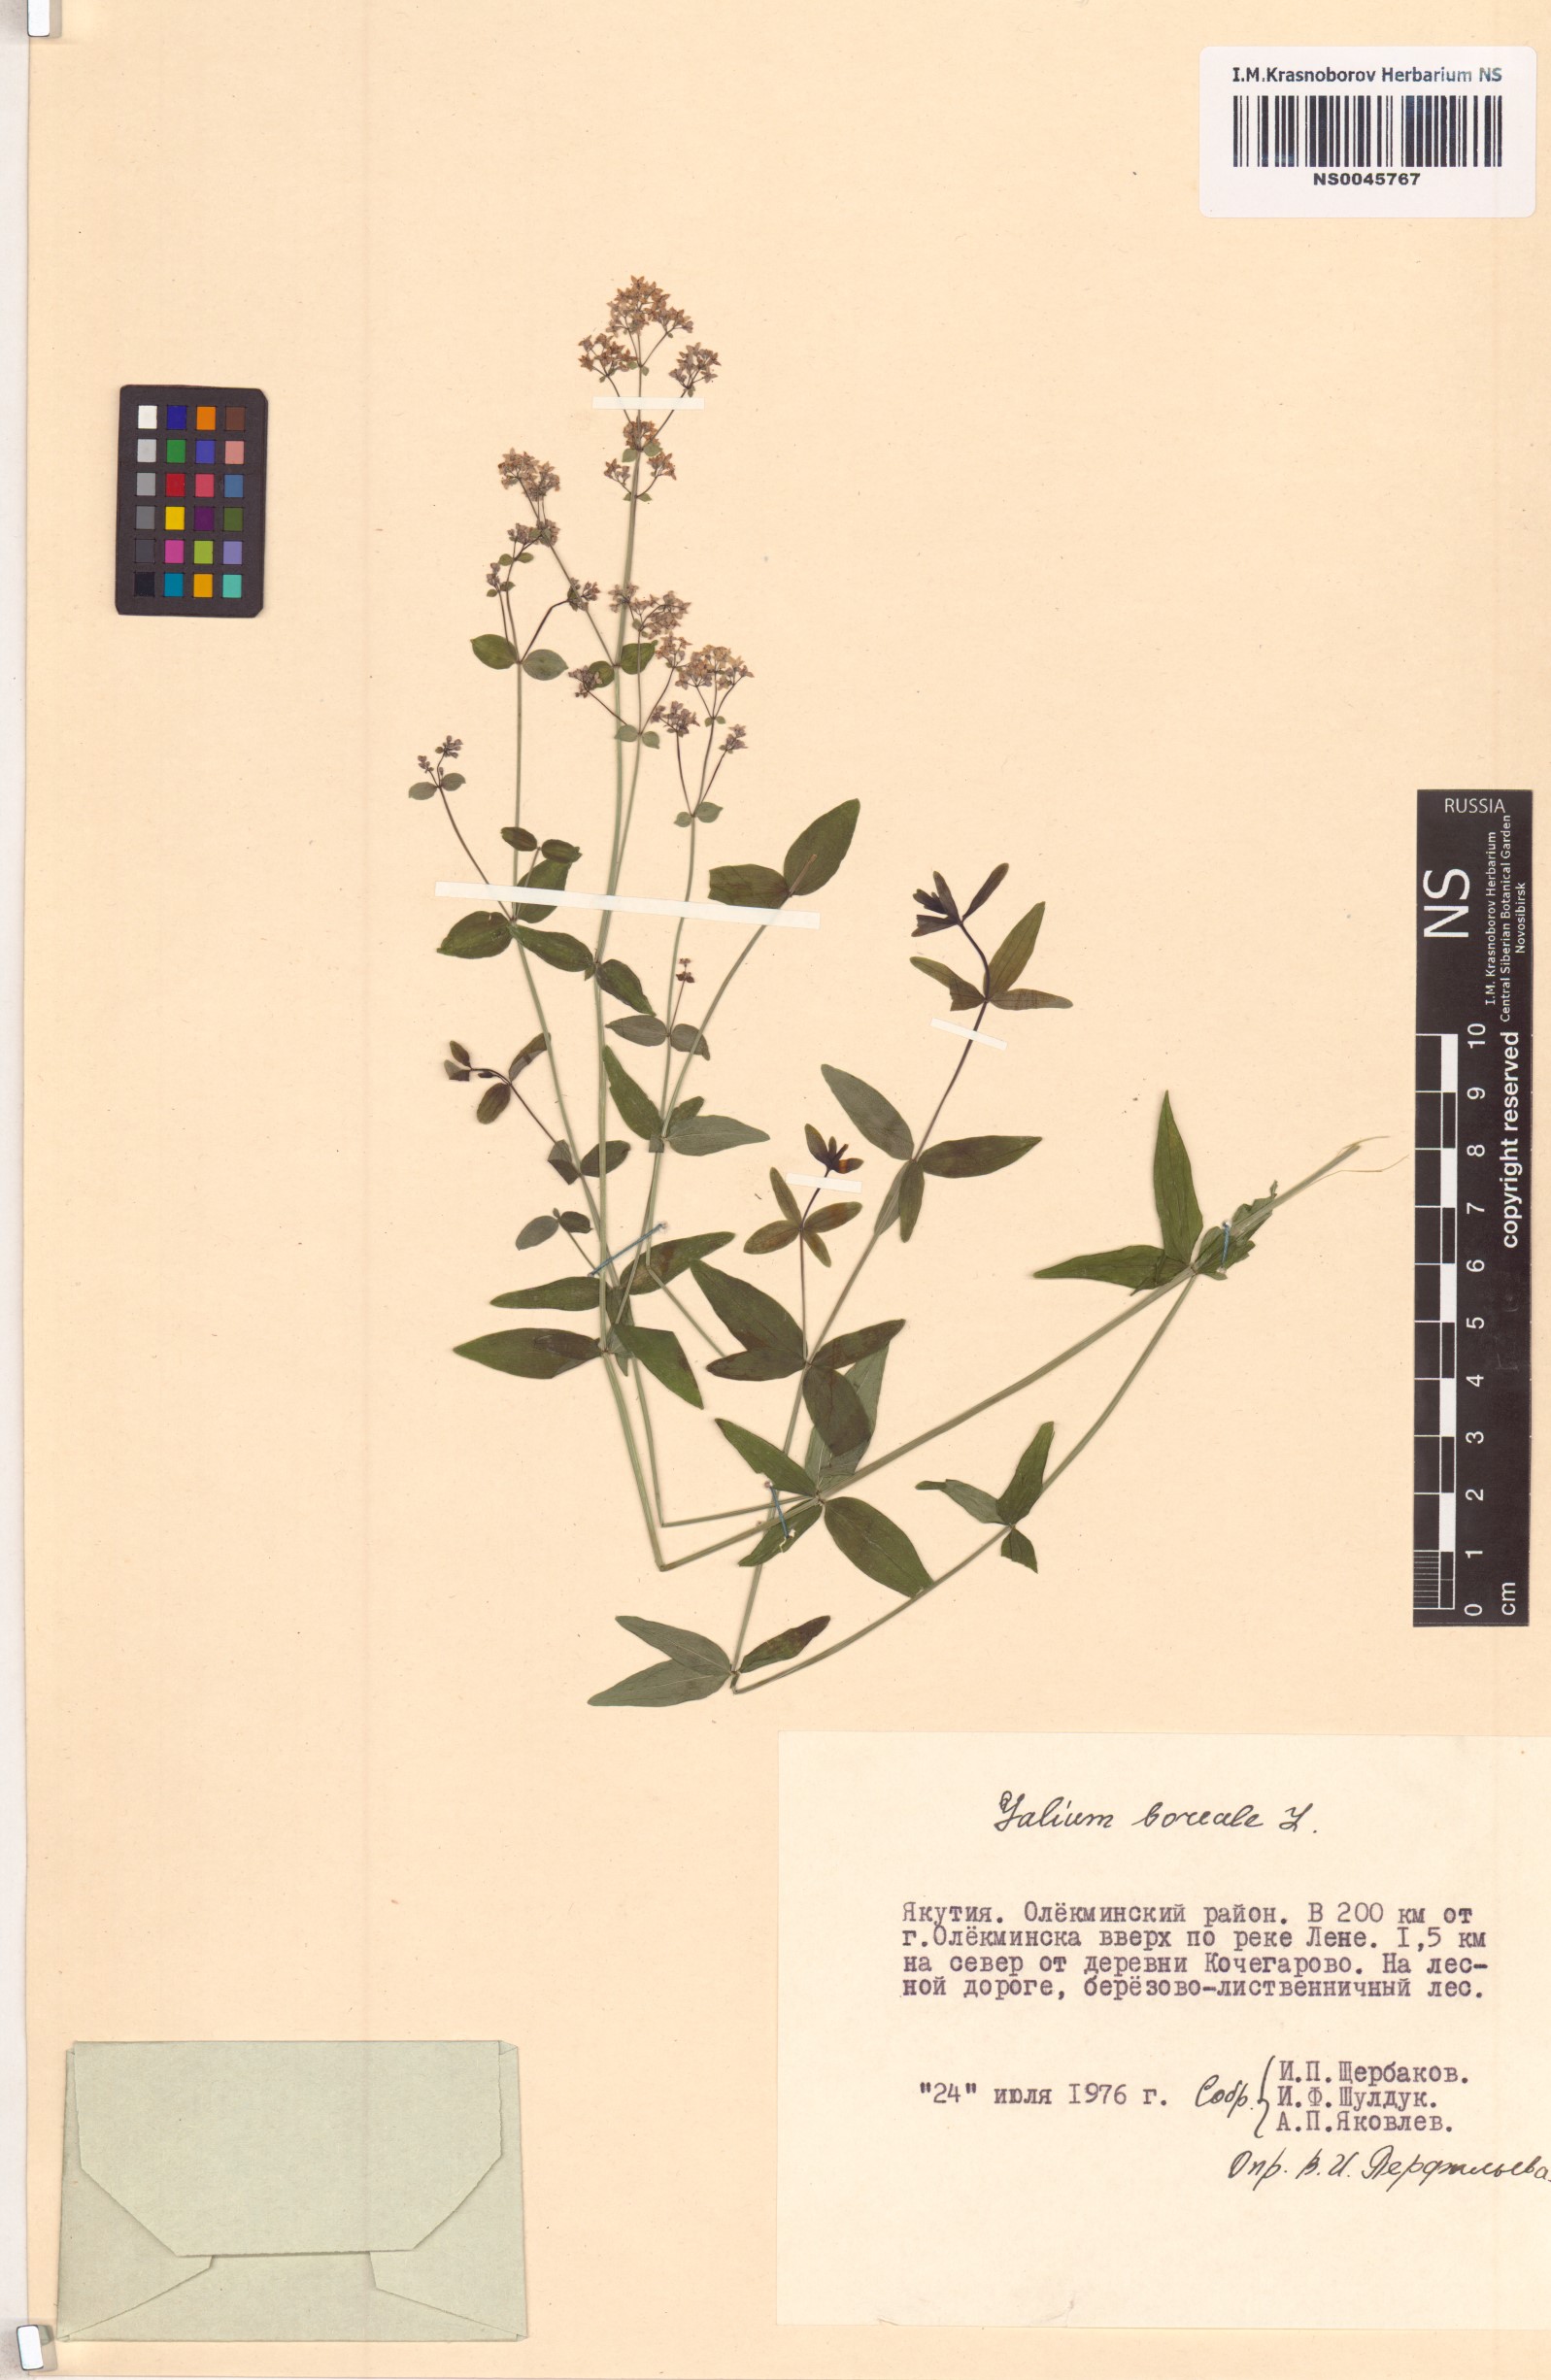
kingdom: Plantae
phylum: Tracheophyta
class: Magnoliopsida
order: Gentianales
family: Rubiaceae
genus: Galium
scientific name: Galium boreale
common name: Northern bedstraw
